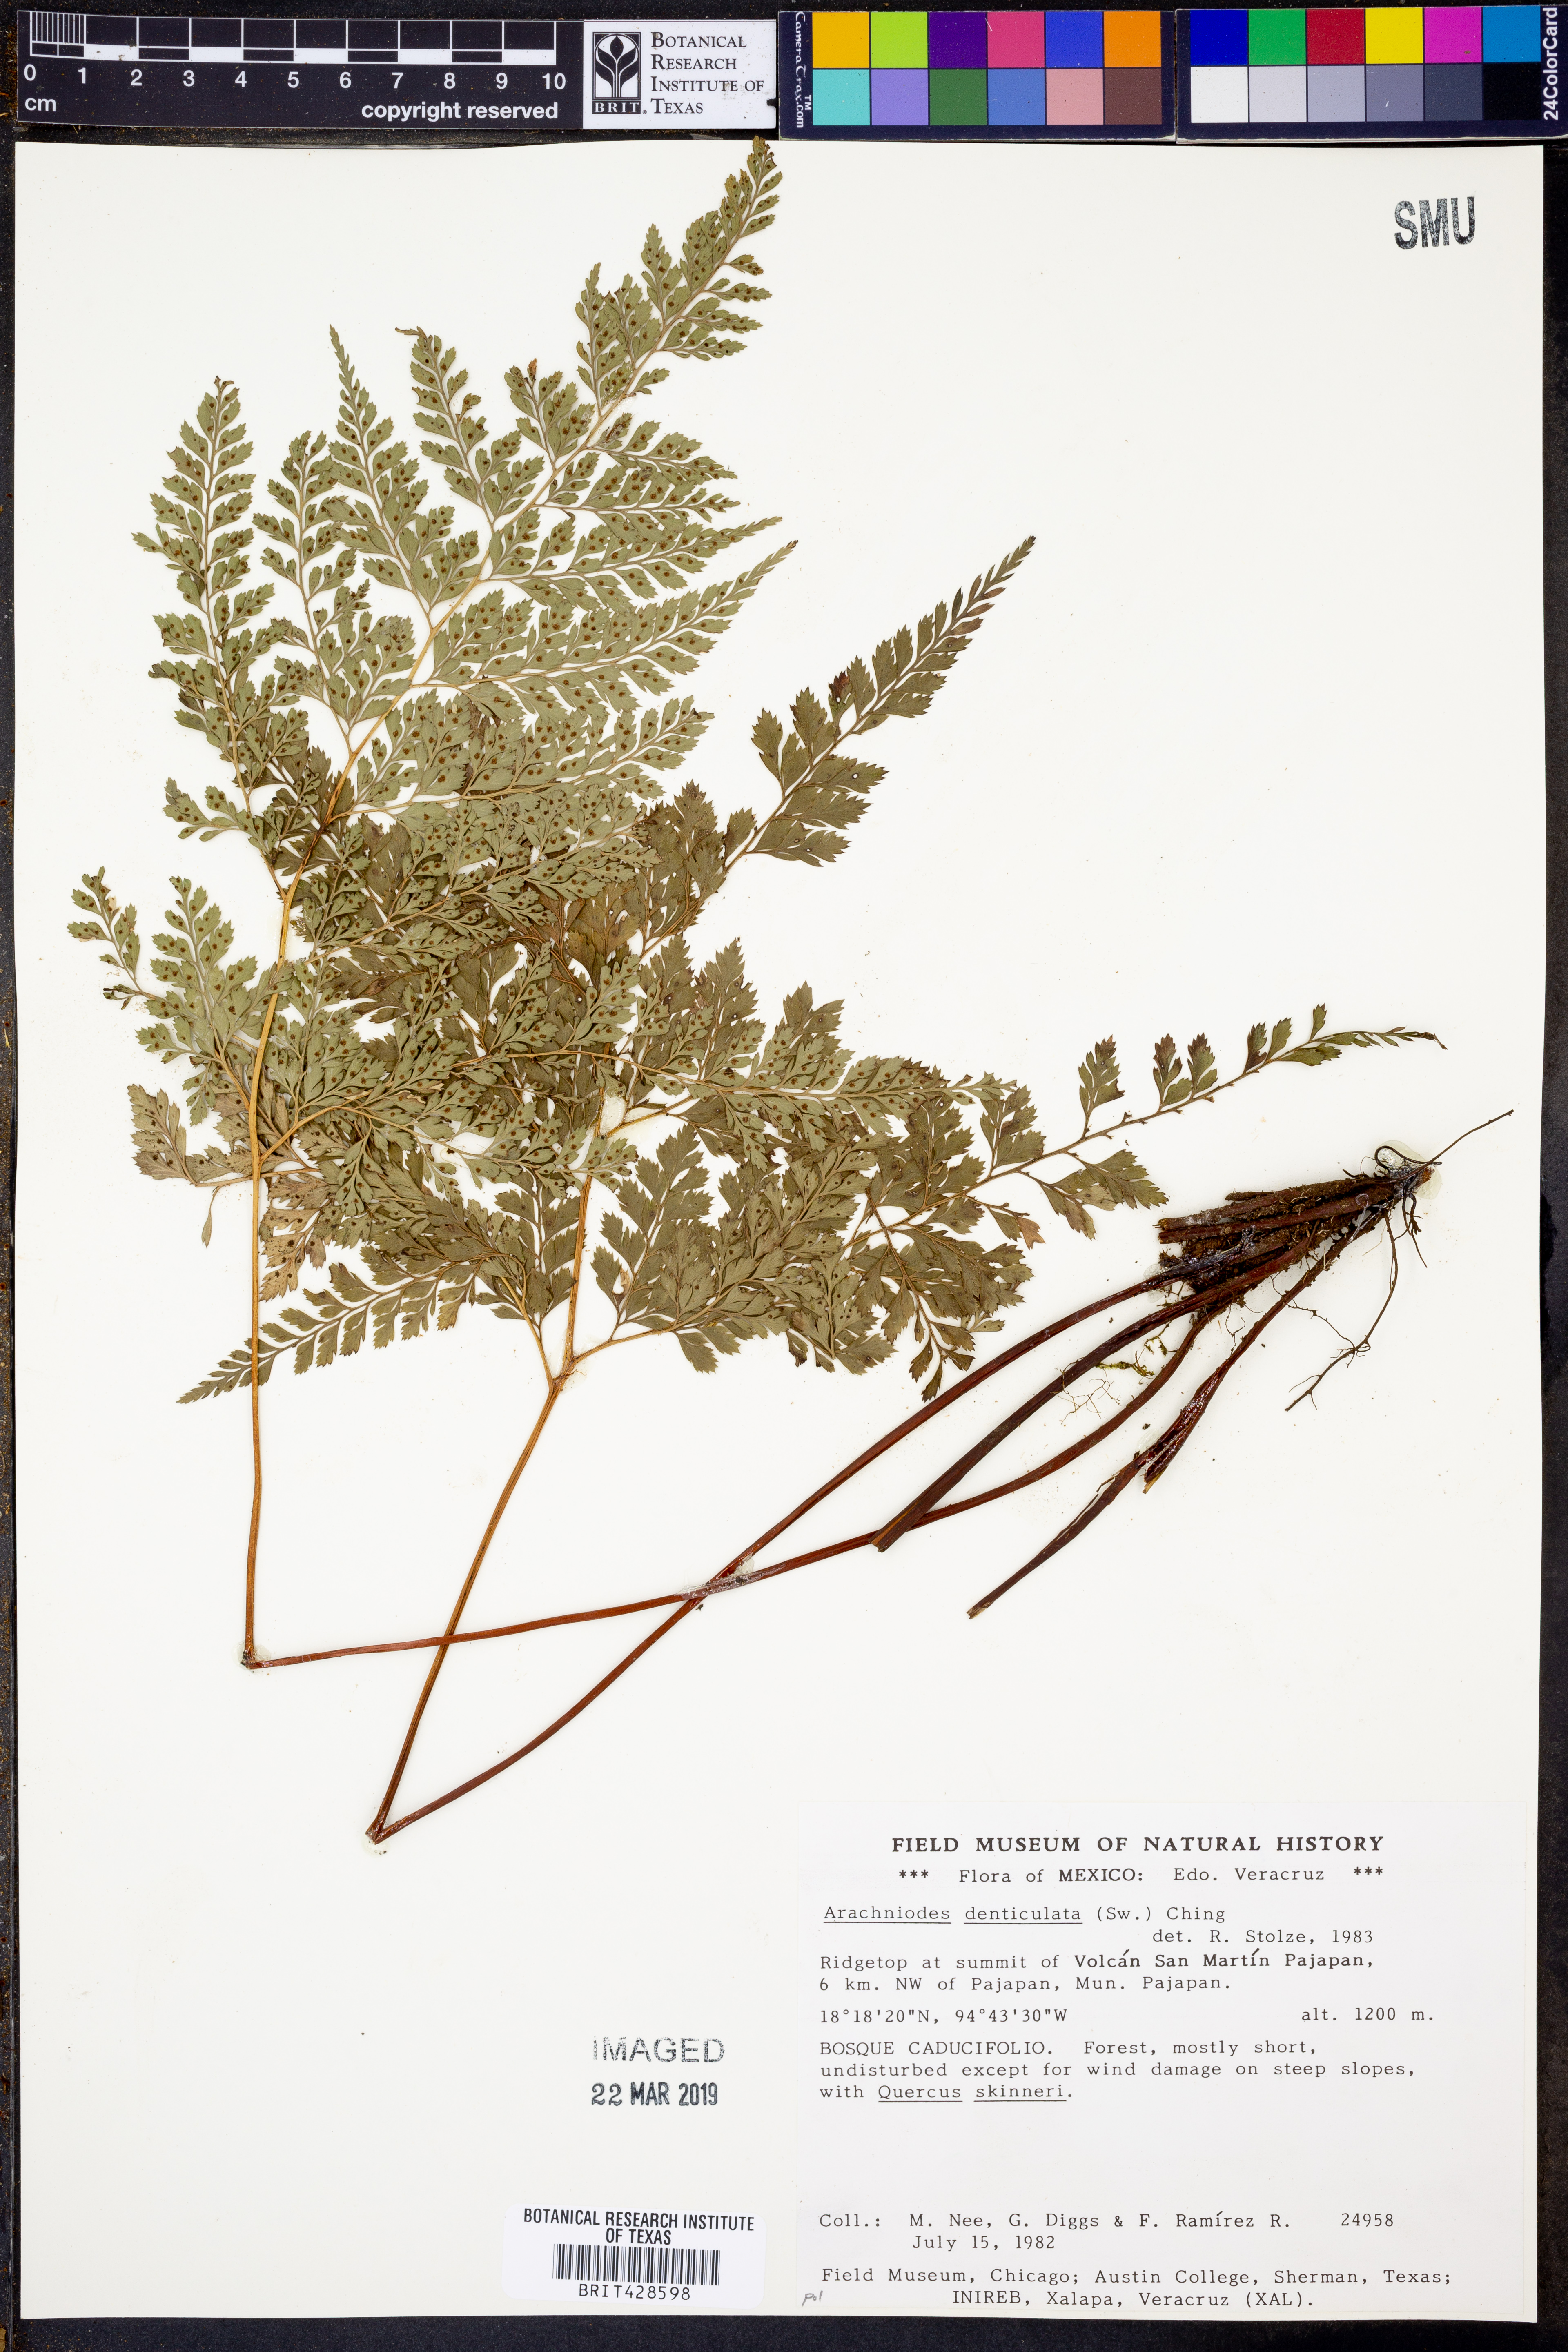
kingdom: Plantae
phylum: Tracheophyta
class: Polypodiopsida
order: Polypodiales
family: Dryopteridaceae
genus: Arachniodes
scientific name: Arachniodes denticulata
